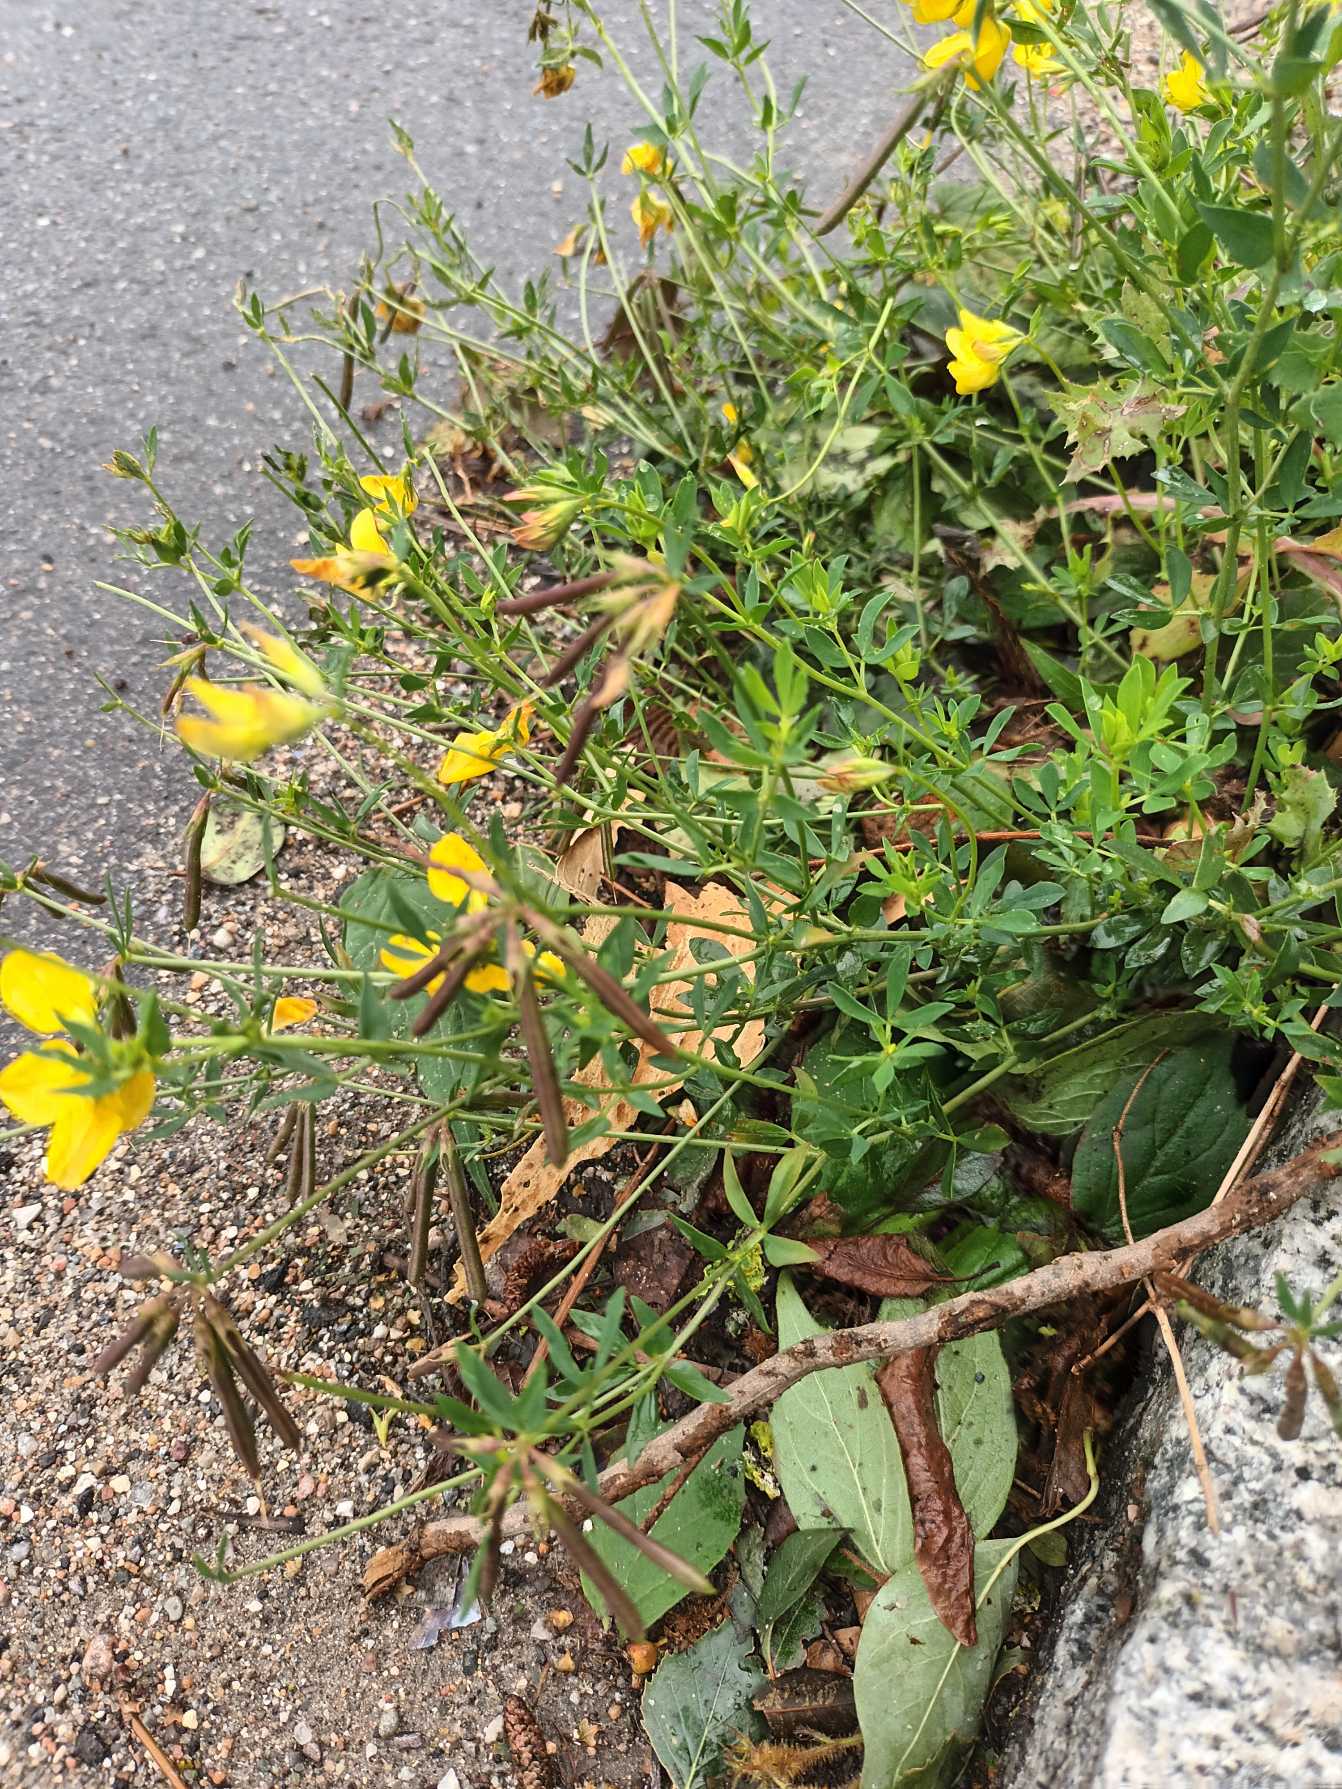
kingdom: Plantae
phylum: Tracheophyta
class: Magnoliopsida
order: Fabales
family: Fabaceae
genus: Lotus
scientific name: Lotus corniculatus
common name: Almindelig kællingetand
